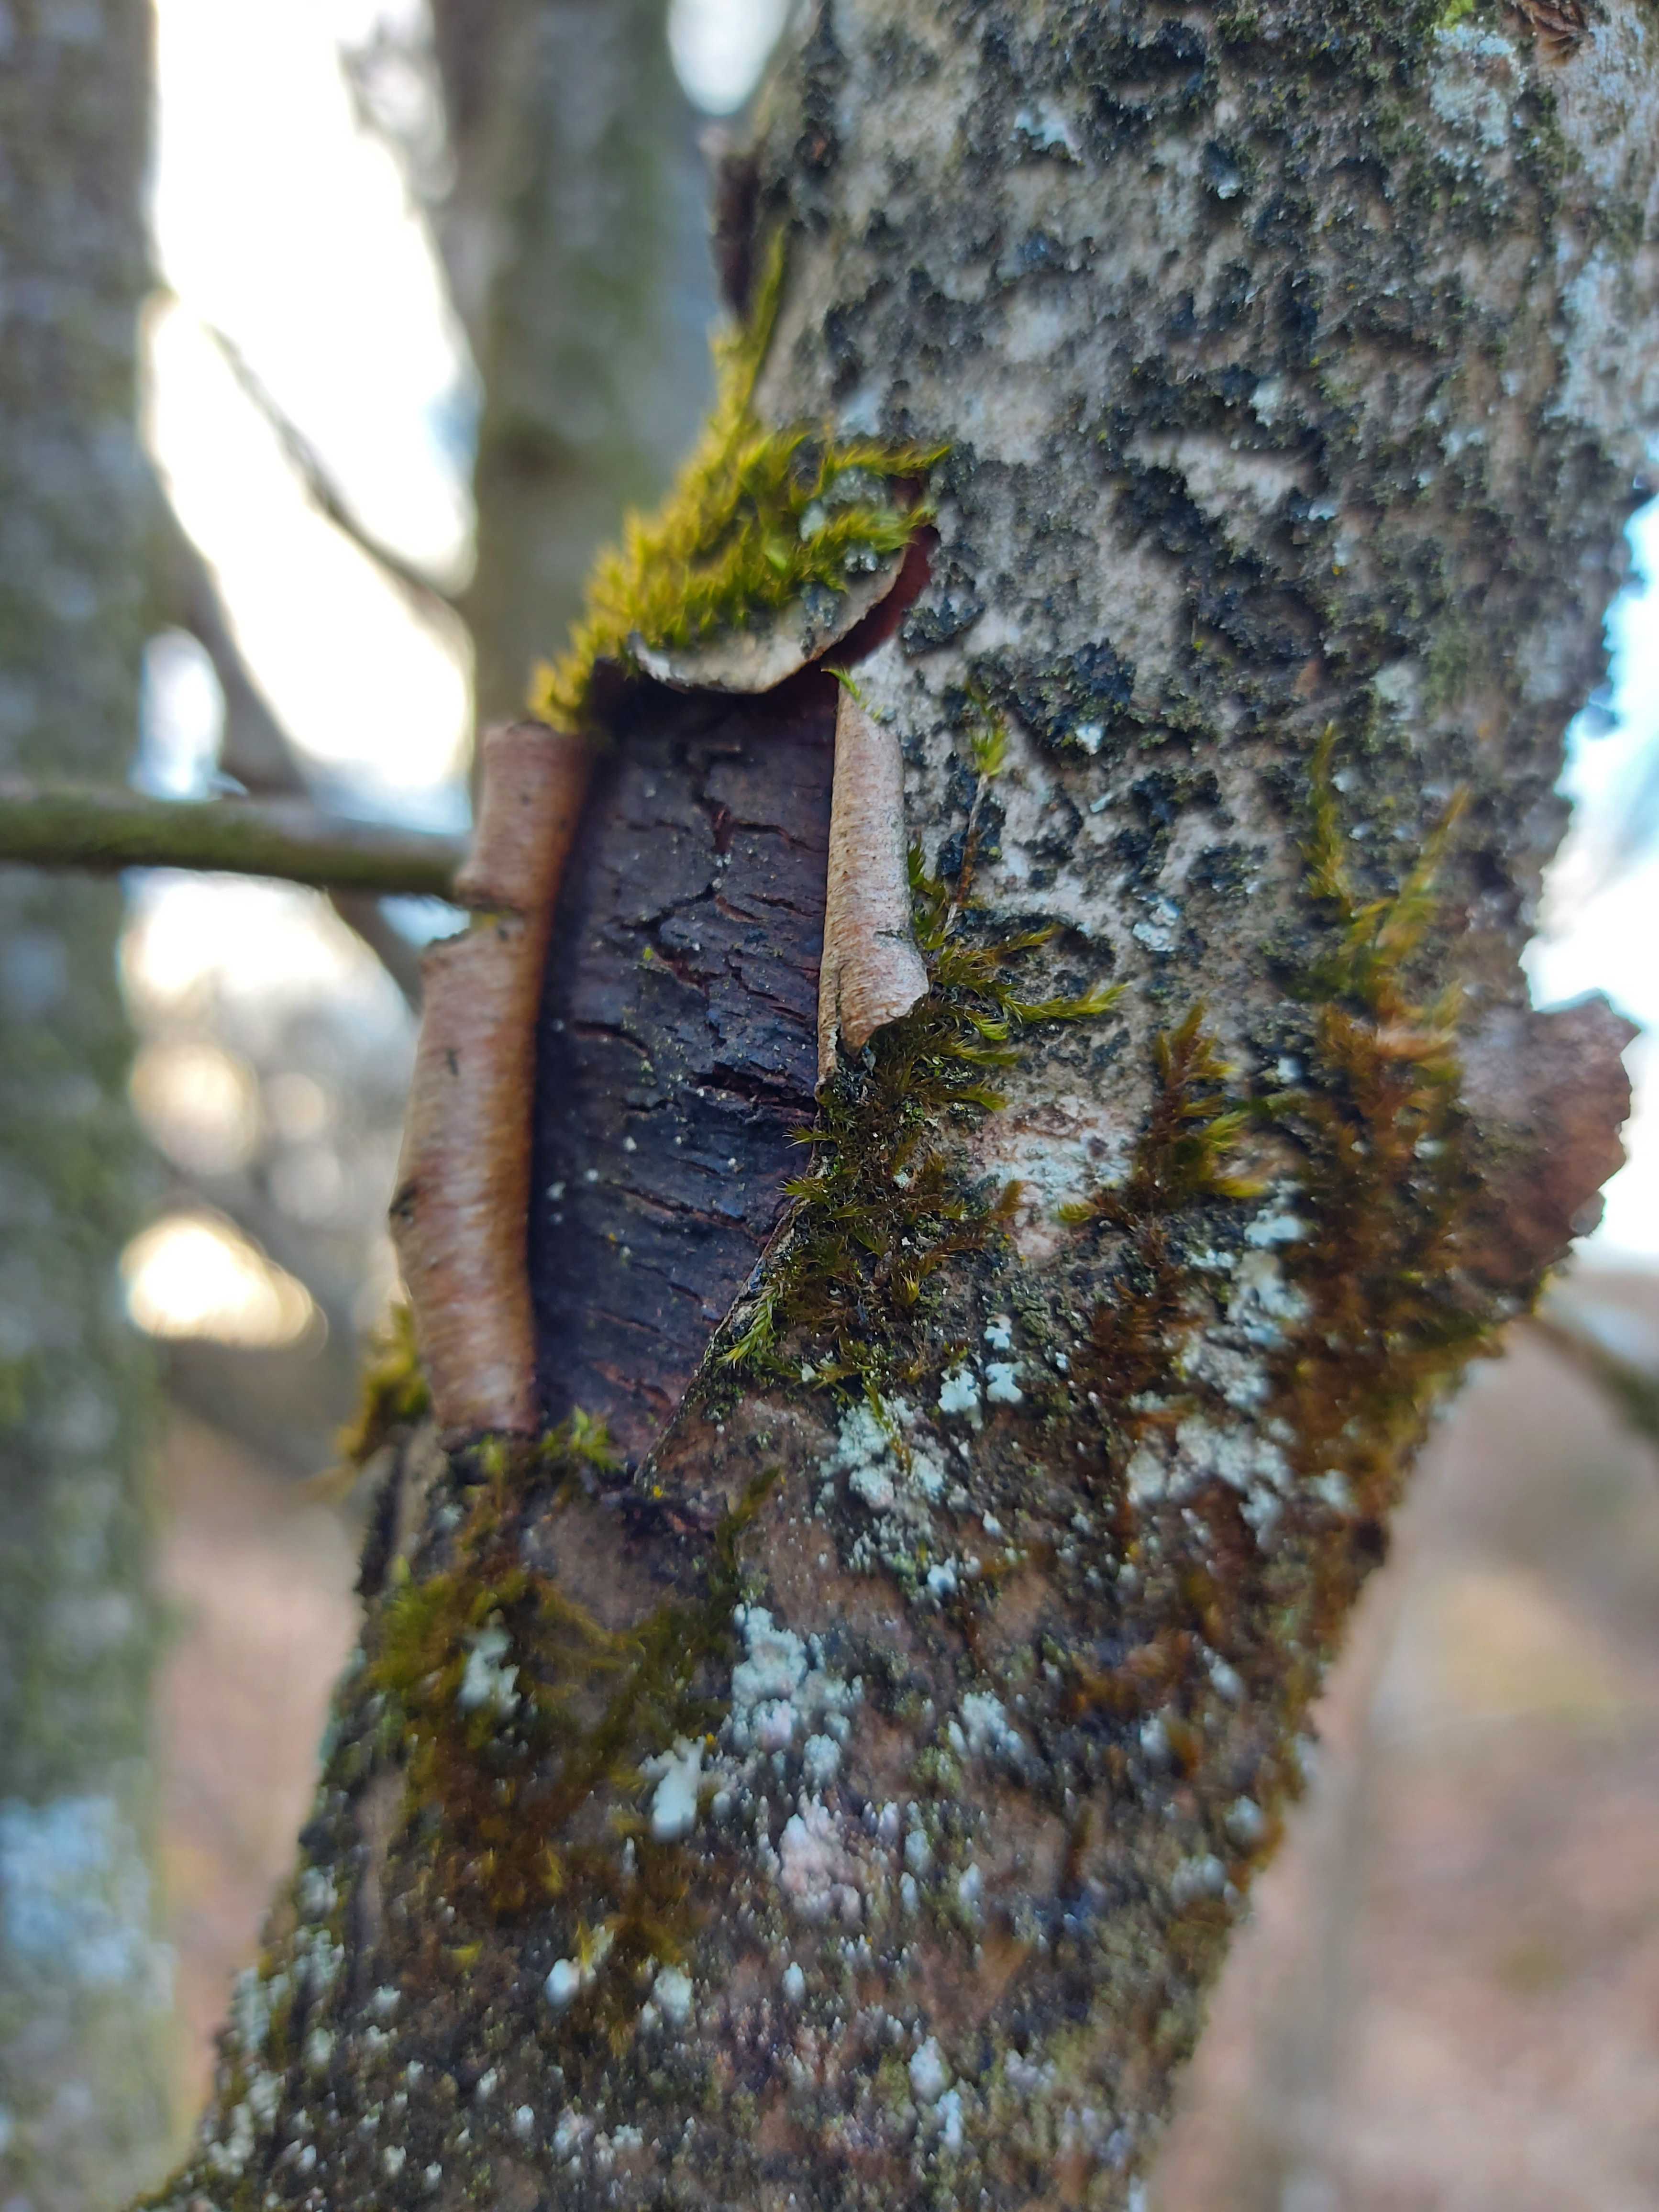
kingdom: Fungi
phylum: Ascomycota
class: Sordariomycetes
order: Xylariales
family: Diatrypaceae
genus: Diatrype
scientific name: Diatrype
